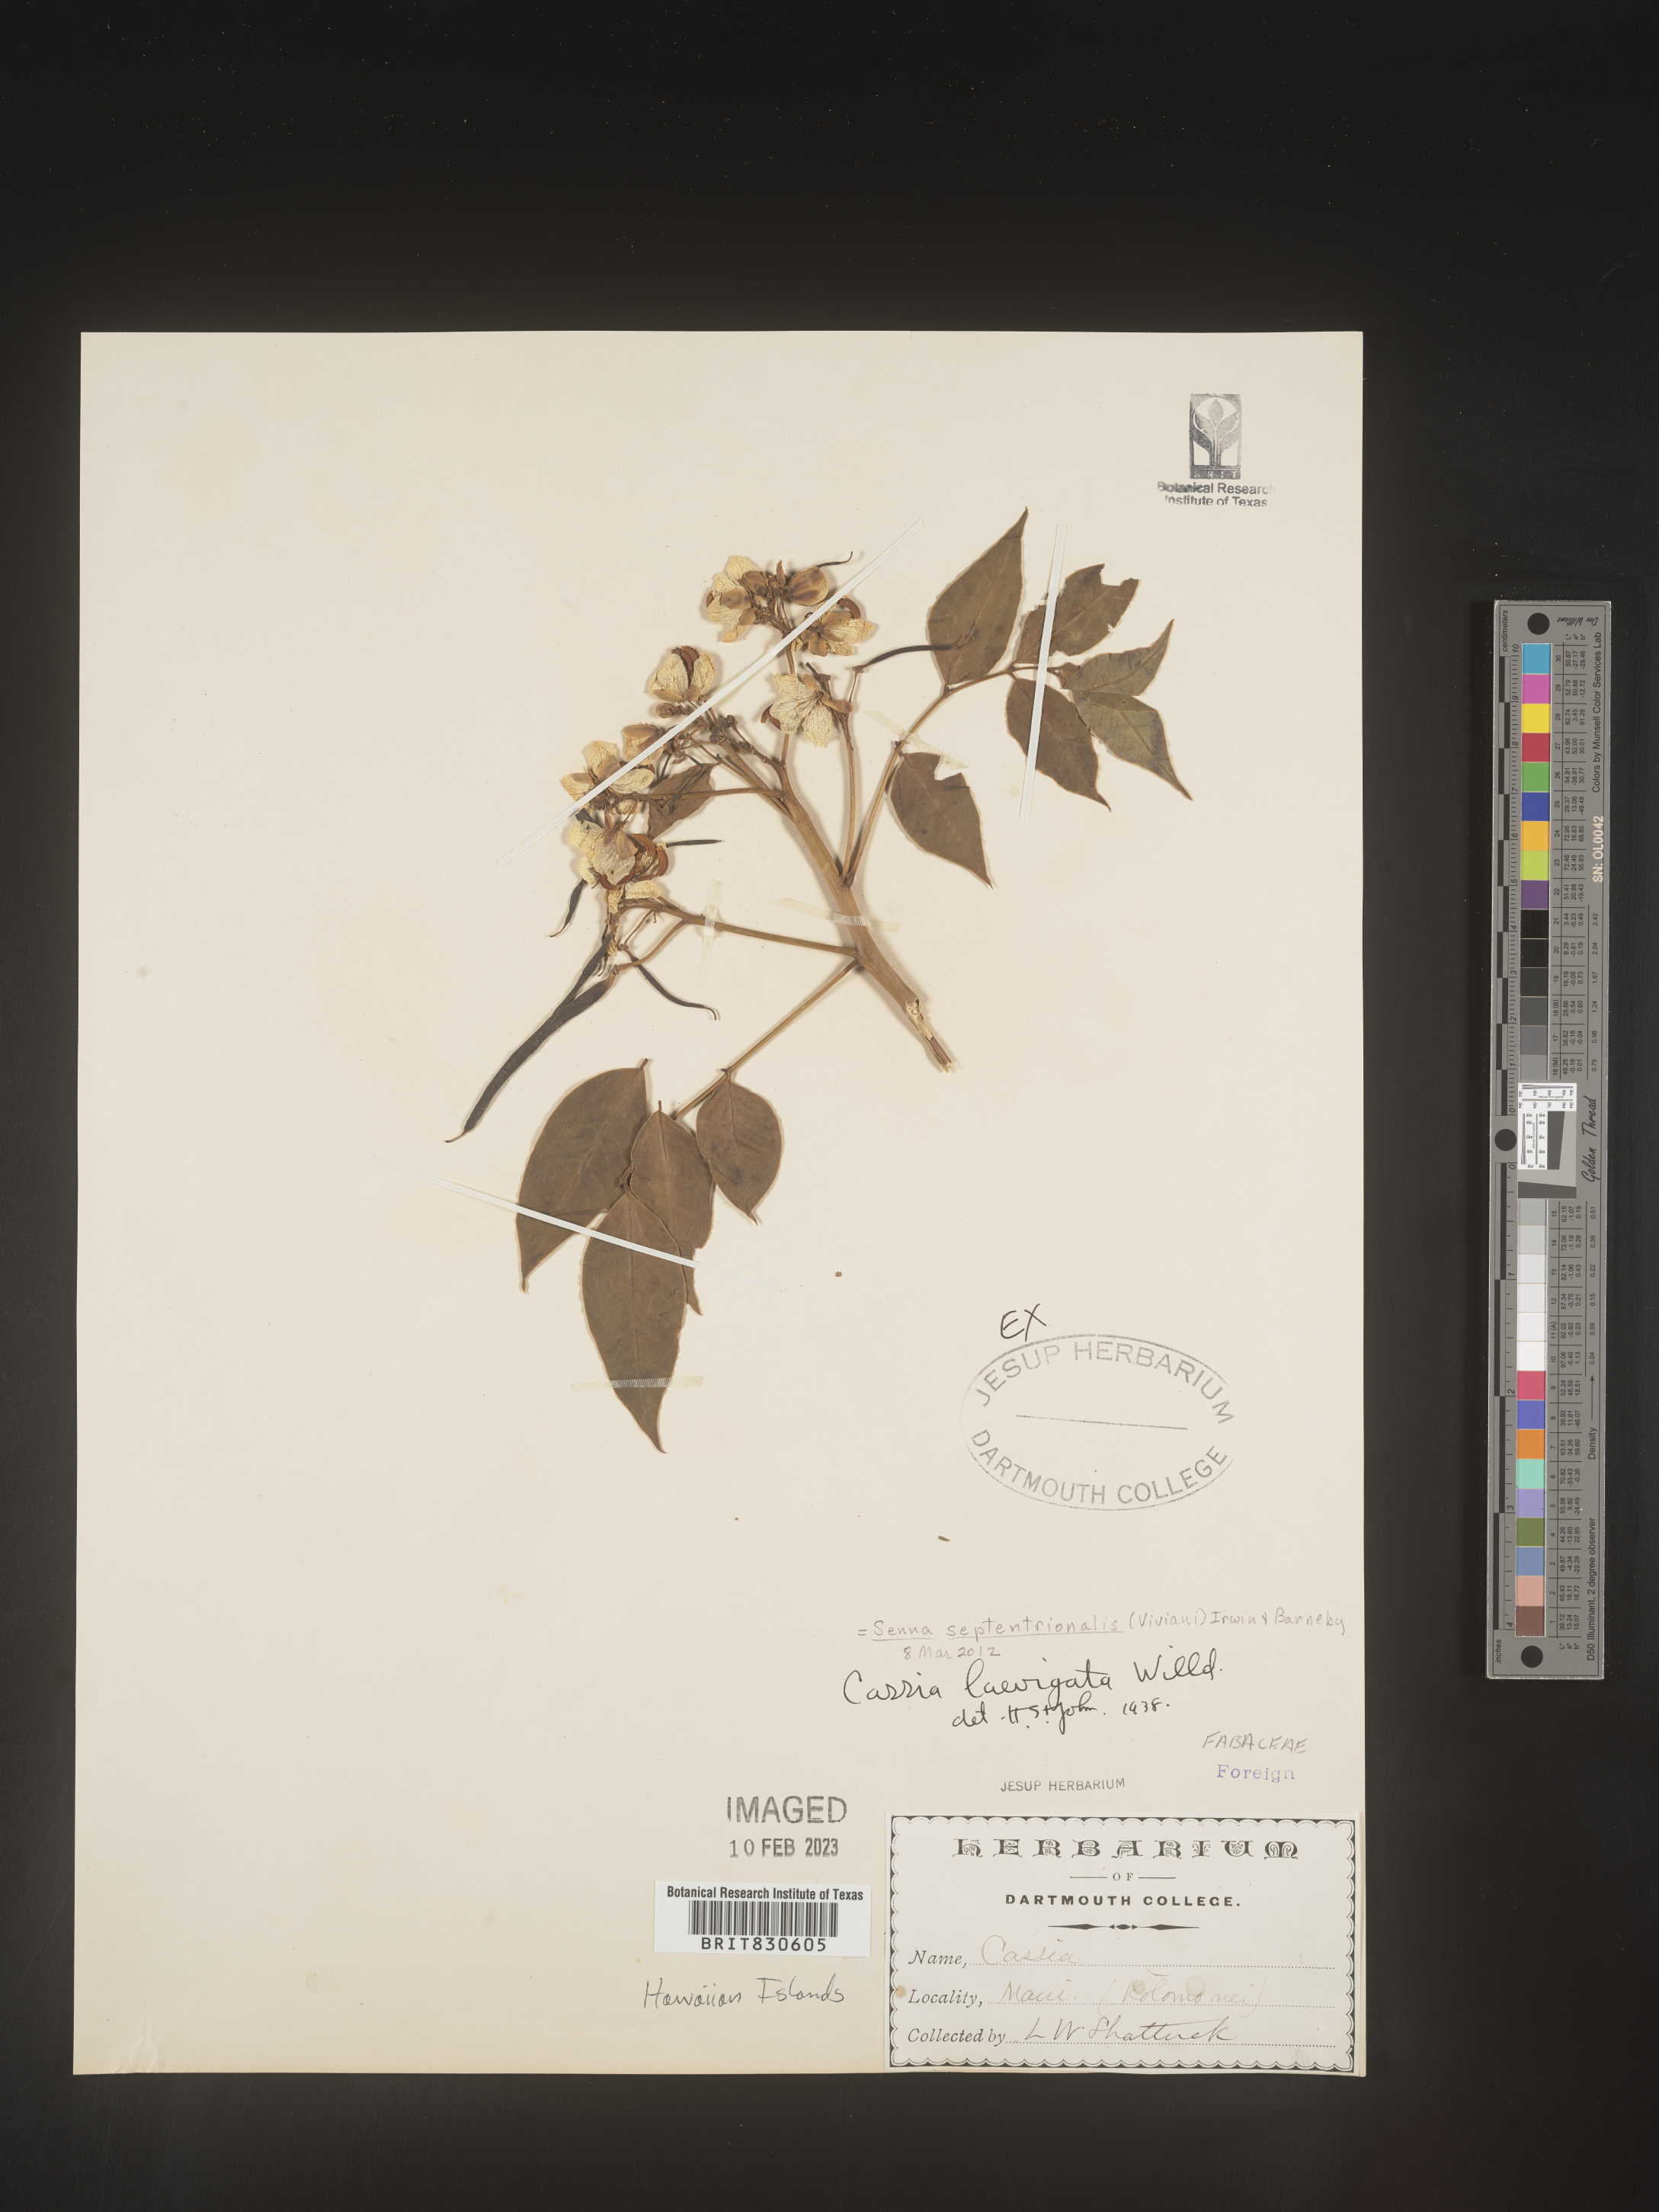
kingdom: Plantae
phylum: Tracheophyta
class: Magnoliopsida
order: Fabales
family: Fabaceae
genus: Senna
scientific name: Senna septemtrionalis
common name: Arsenic bush
